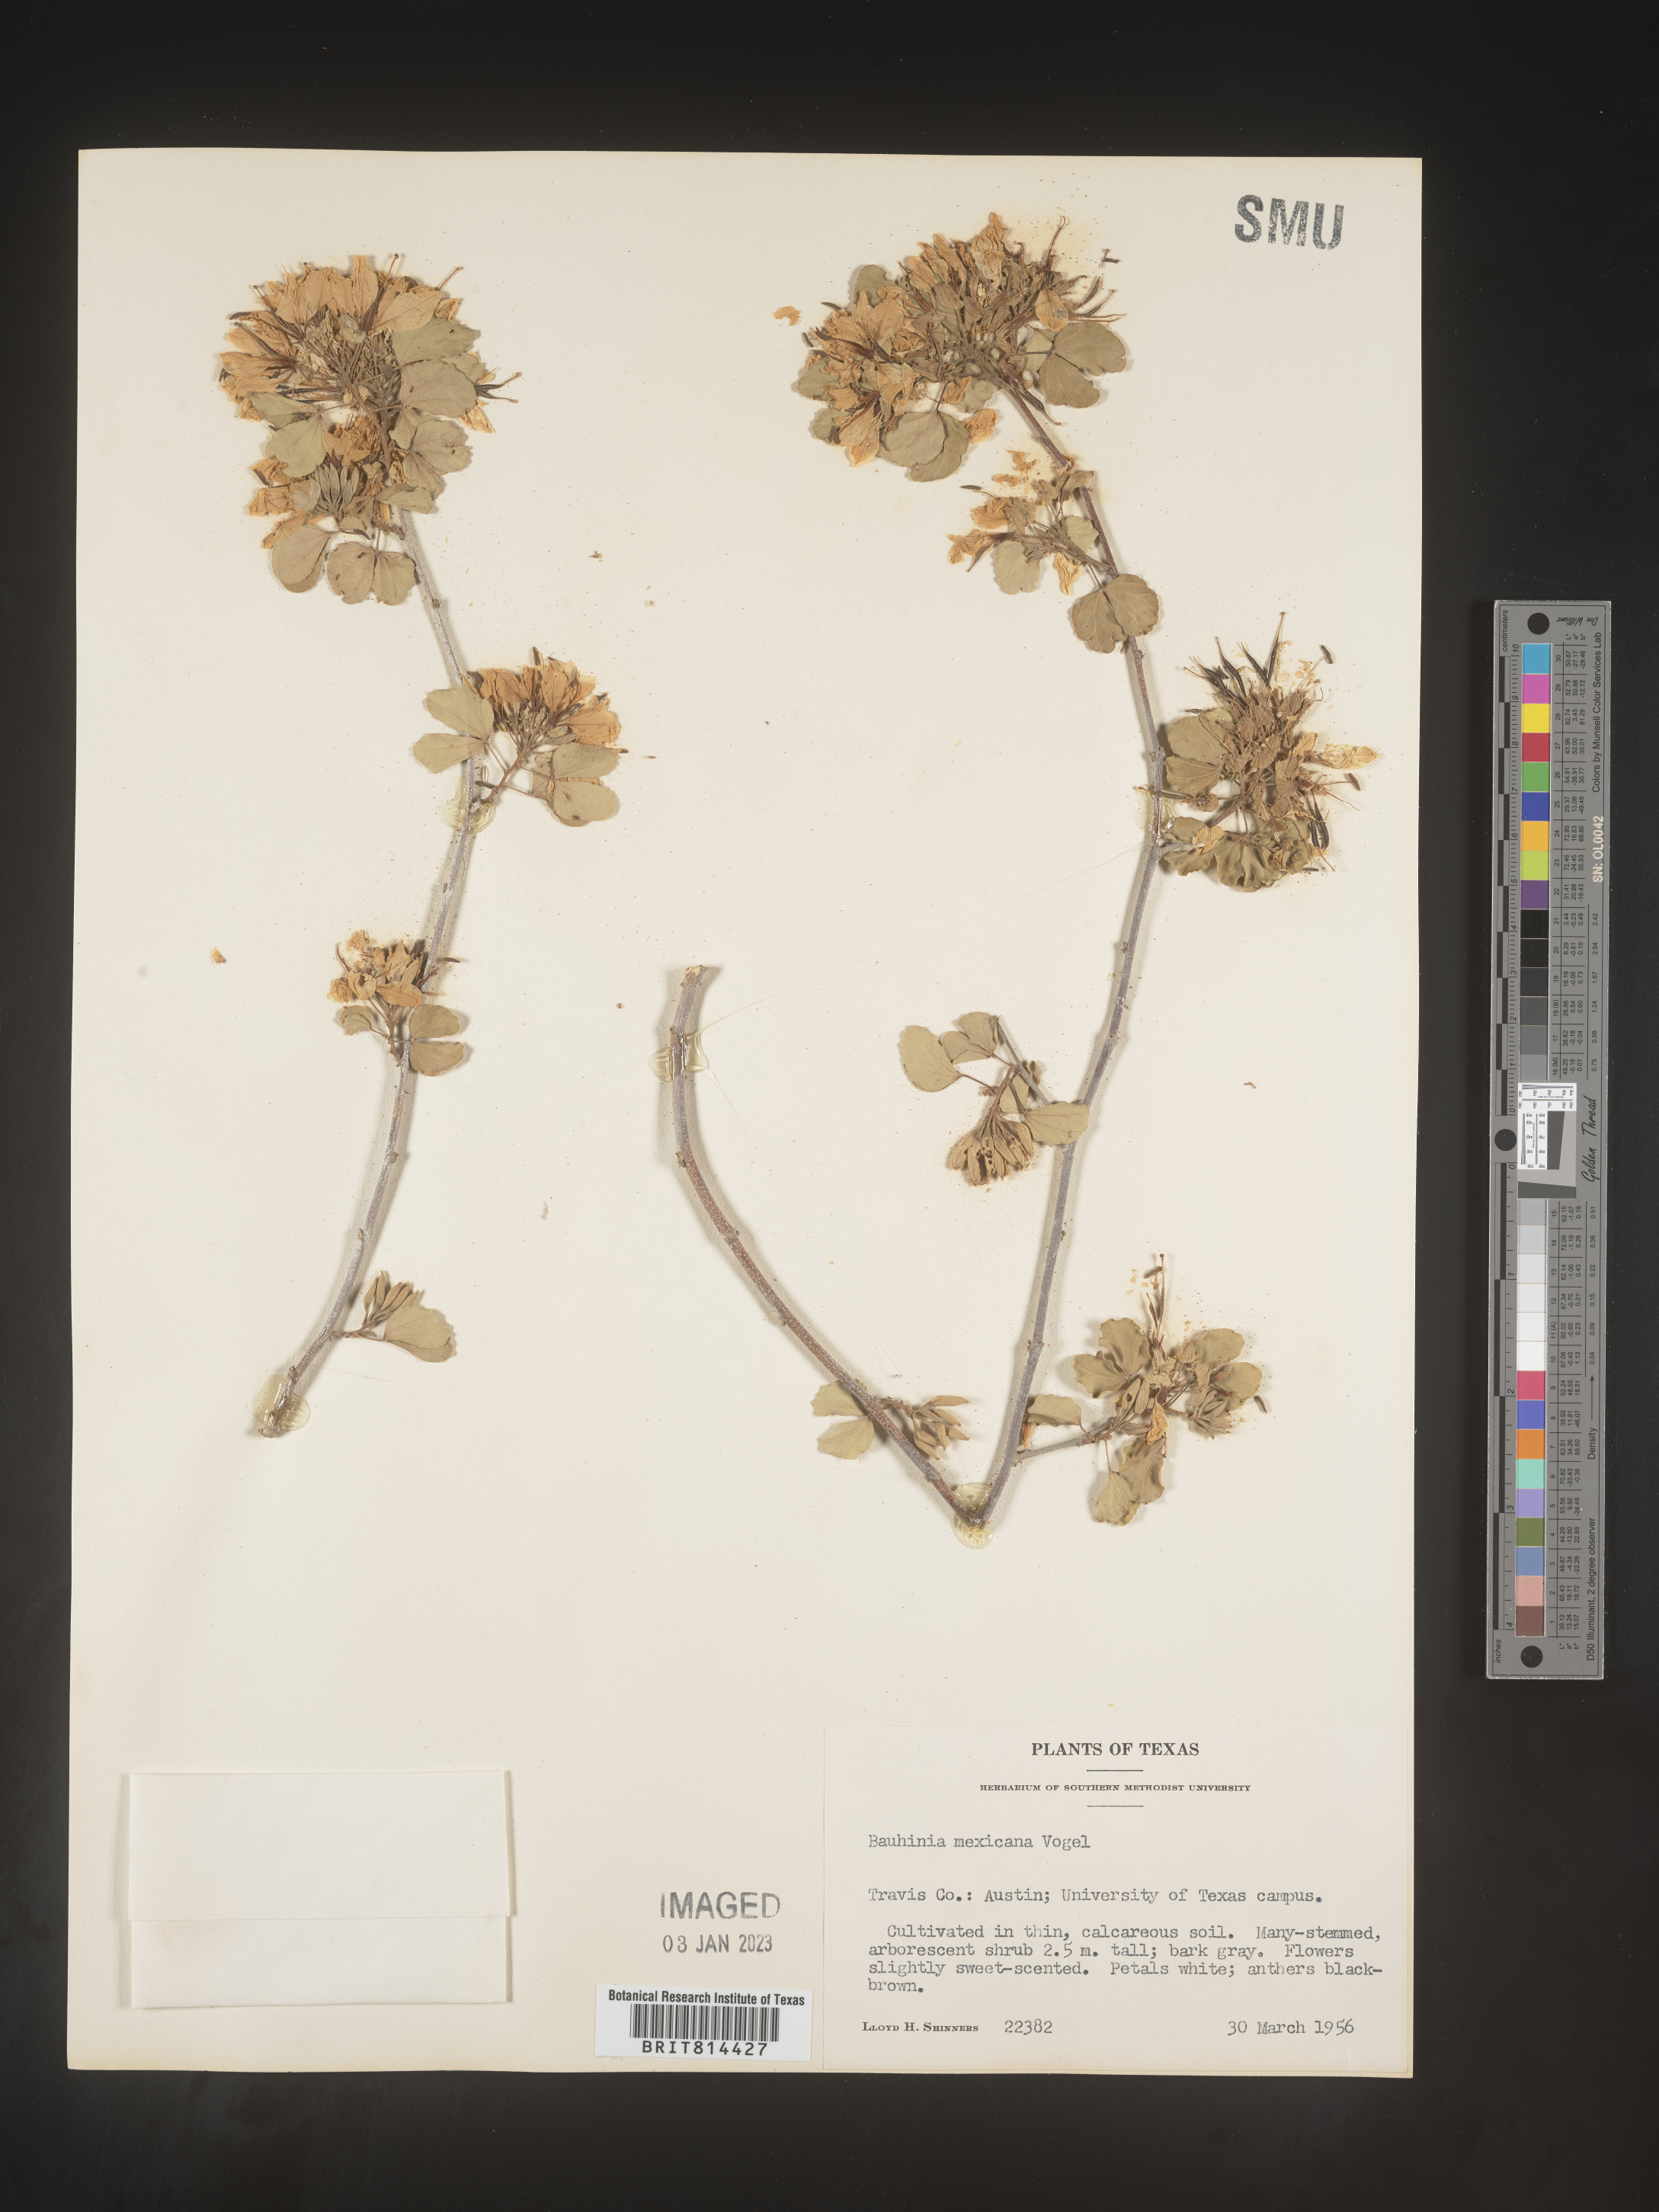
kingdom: Plantae
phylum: Tracheophyta
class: Magnoliopsida
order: Fabales
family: Fabaceae
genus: Bauhinia
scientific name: Bauhinia
